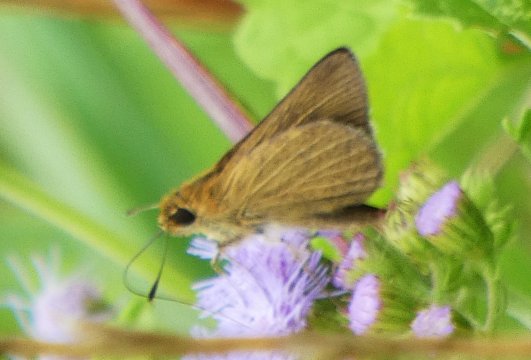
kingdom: Animalia
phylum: Arthropoda
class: Insecta
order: Lepidoptera
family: Hesperiidae
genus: Nastra
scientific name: Nastra lherminier
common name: Swarthy Skipper
